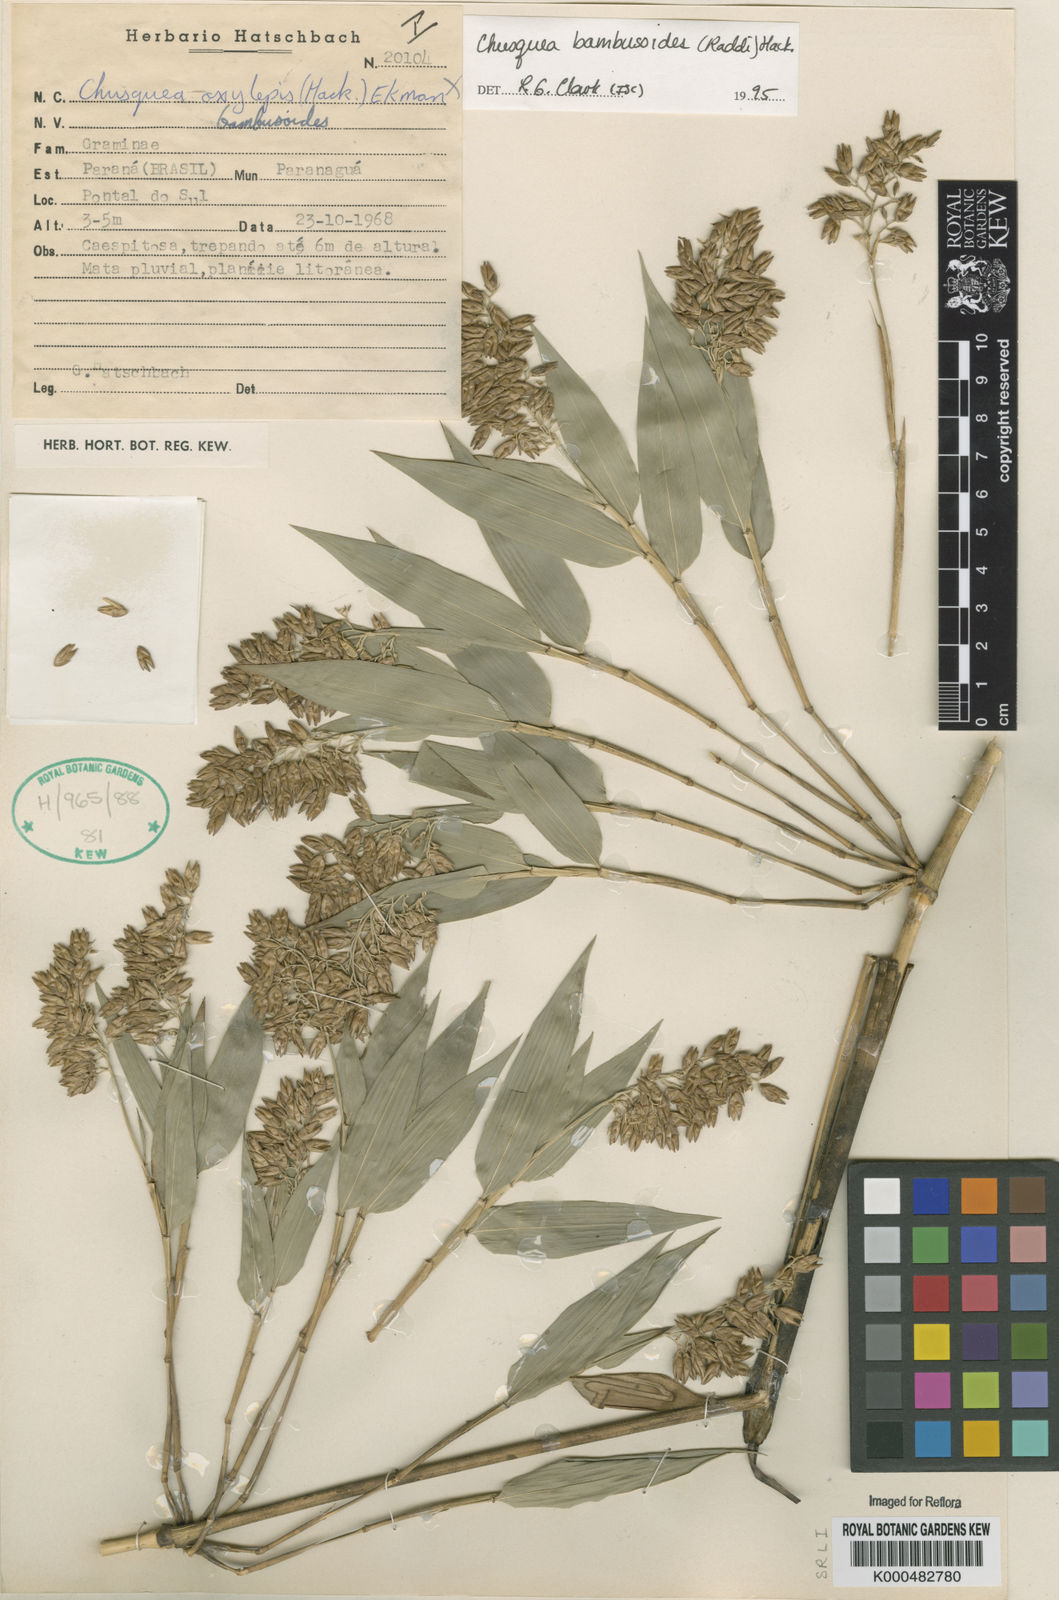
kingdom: Plantae
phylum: Tracheophyta
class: Liliopsida
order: Poales
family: Poaceae
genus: Chusquea
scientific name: Chusquea bambusoides
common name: Brazil scrambling bamboo
